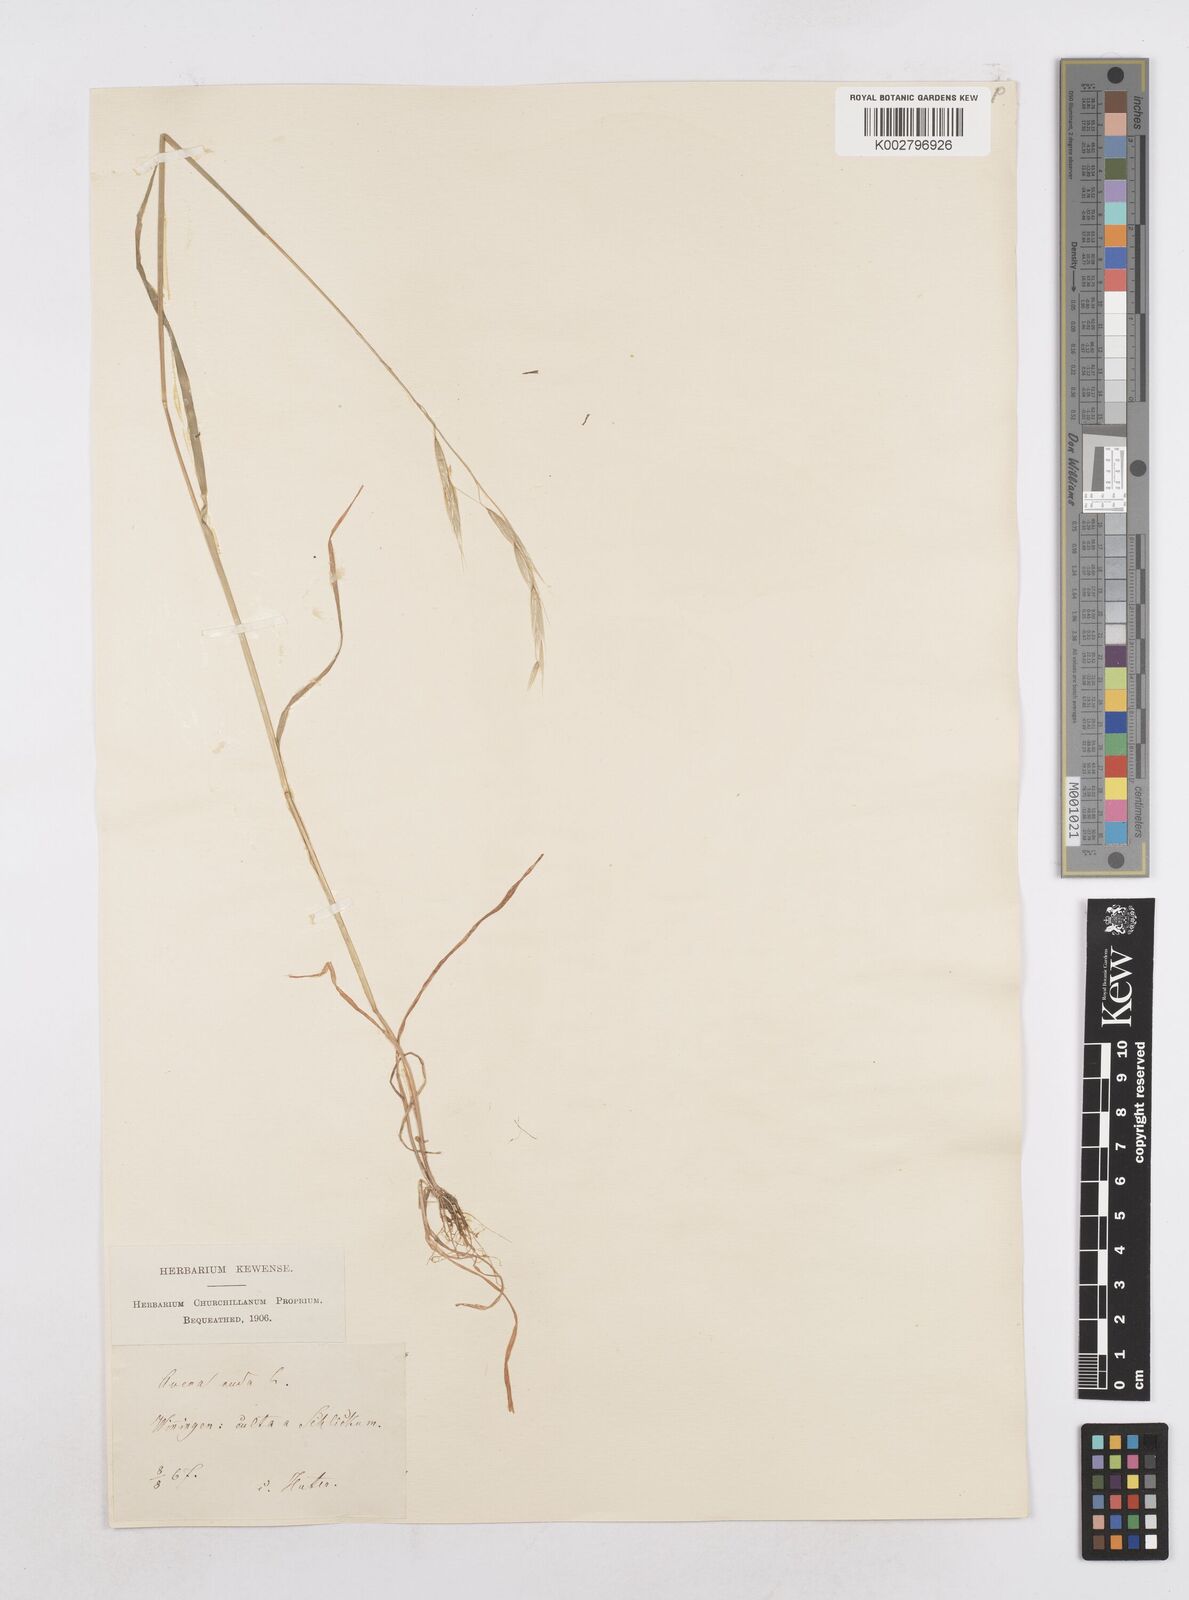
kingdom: Plantae
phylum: Tracheophyta
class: Liliopsida
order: Poales
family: Poaceae
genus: Avena
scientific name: Avena nuda
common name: Naked oat
